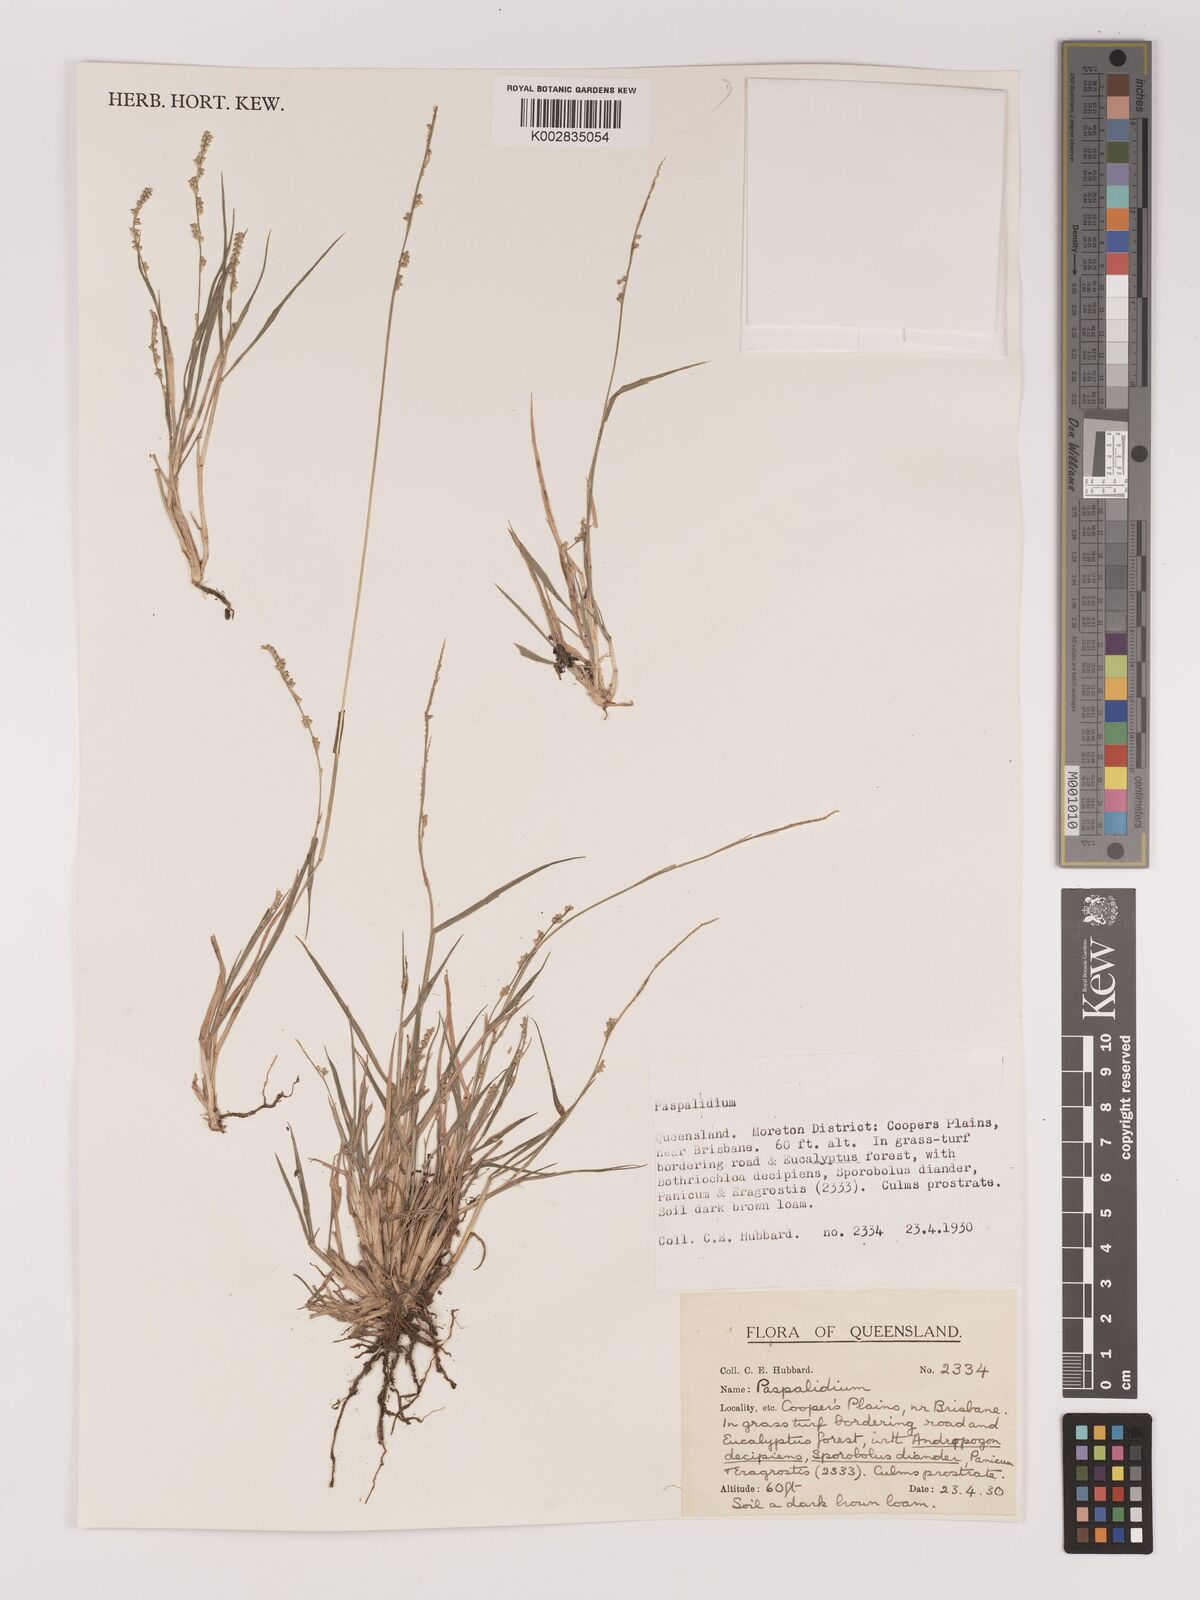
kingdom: Plantae
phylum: Tracheophyta
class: Liliopsida
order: Poales
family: Poaceae
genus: Setaria
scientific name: Setaria
